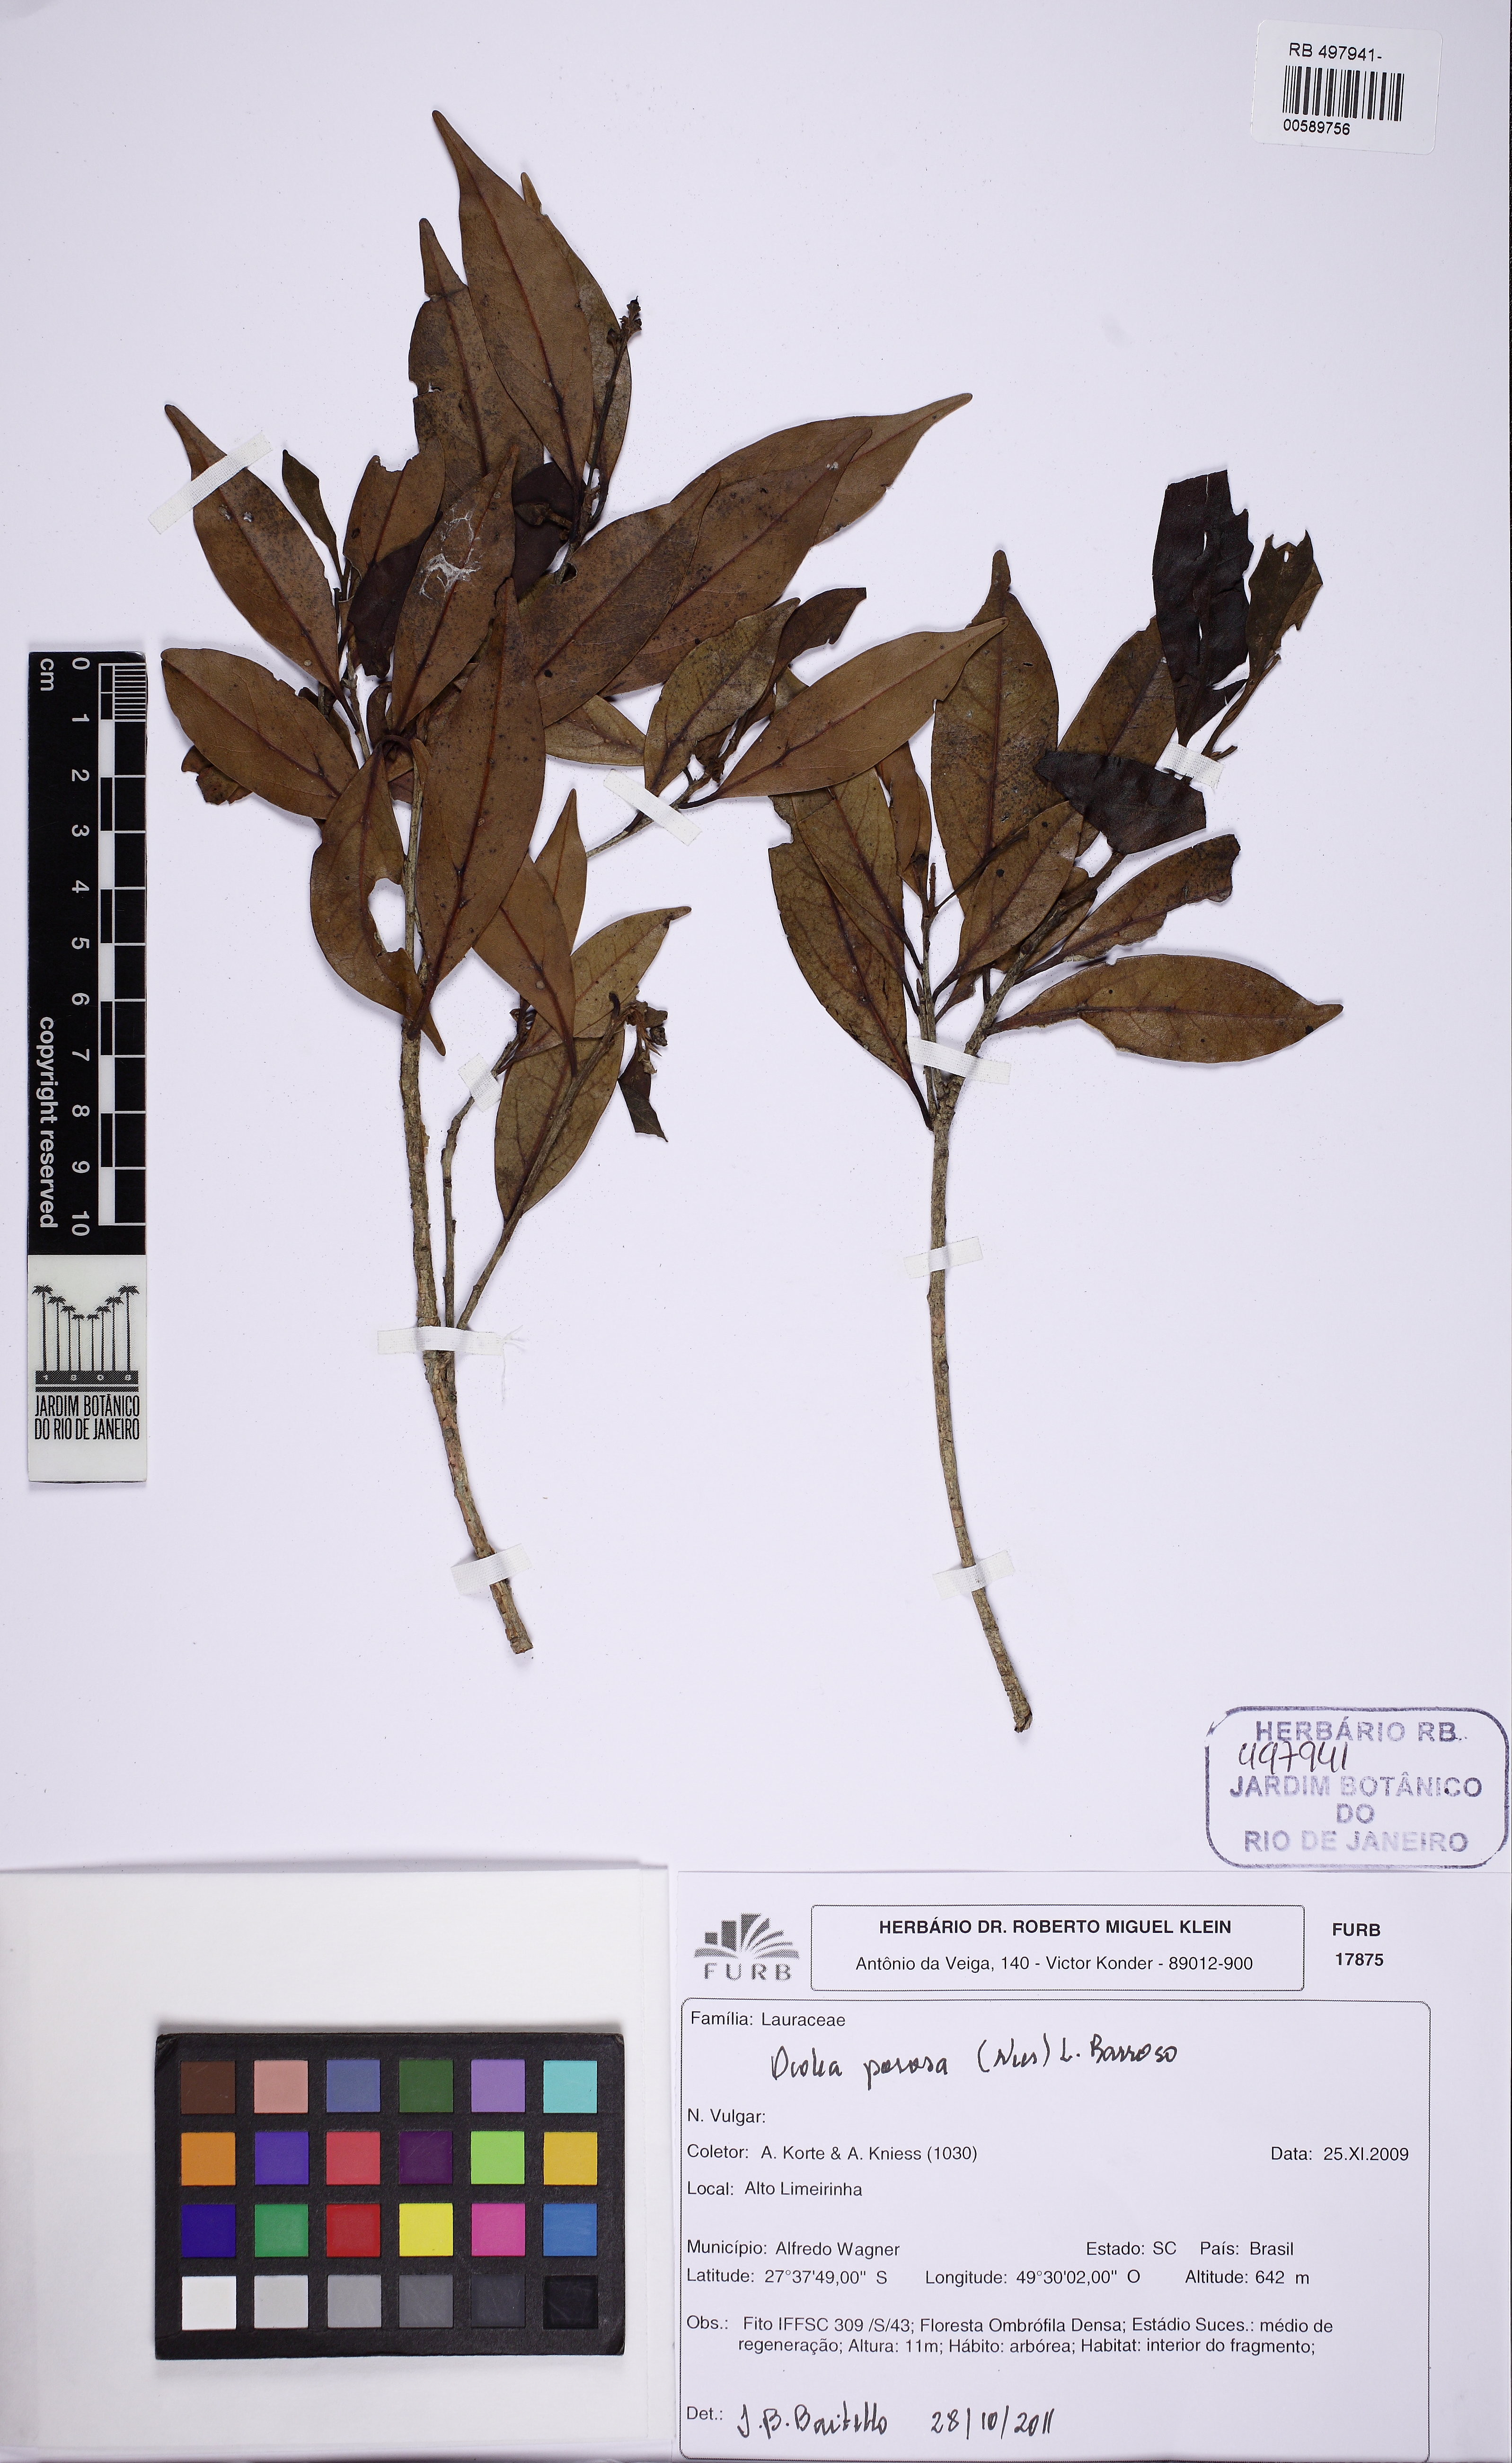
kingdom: Plantae
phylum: Tracheophyta
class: Magnoliopsida
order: Laurales
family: Lauraceae
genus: Ocotea
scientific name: Ocotea porosa
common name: Brazilian-walnut
